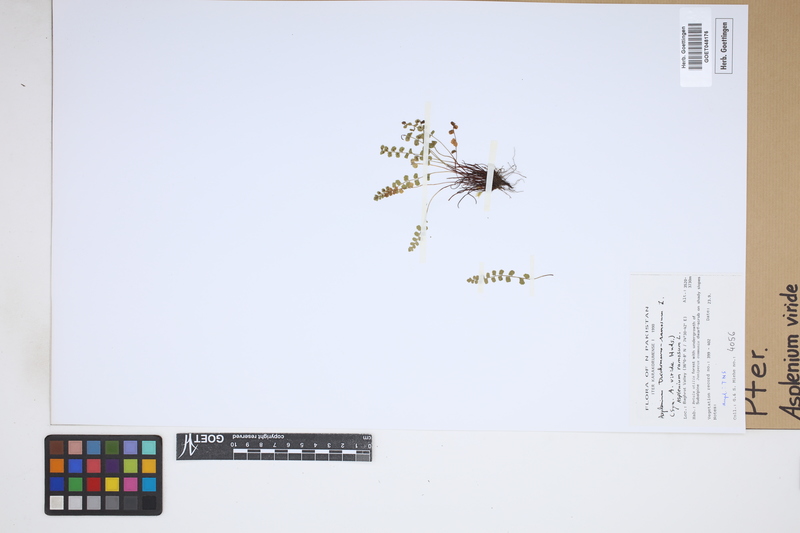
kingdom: Plantae
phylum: Tracheophyta
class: Polypodiopsida
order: Polypodiales
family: Aspleniaceae
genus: Asplenium
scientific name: Asplenium viride
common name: Green spleenwort
